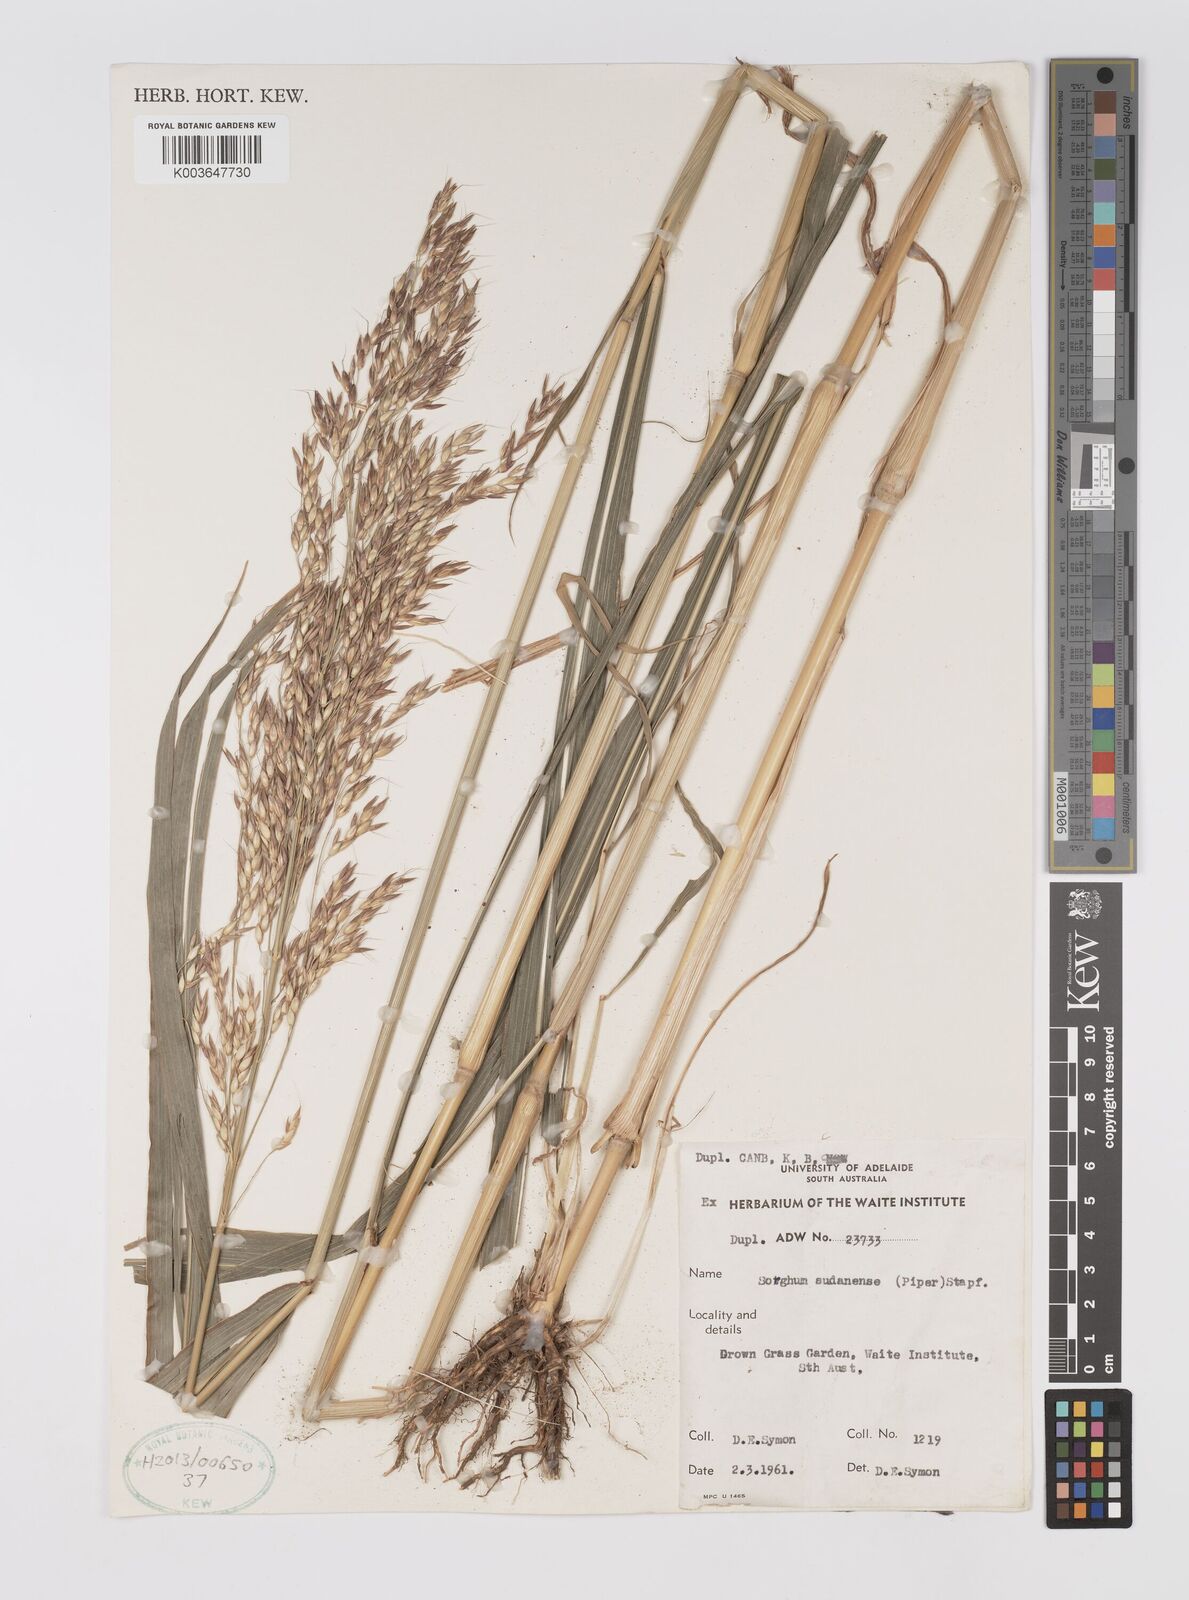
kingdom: Plantae
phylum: Tracheophyta
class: Liliopsida
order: Poales
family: Poaceae
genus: Sorghum
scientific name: Sorghum drummondii
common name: Sudangrass
